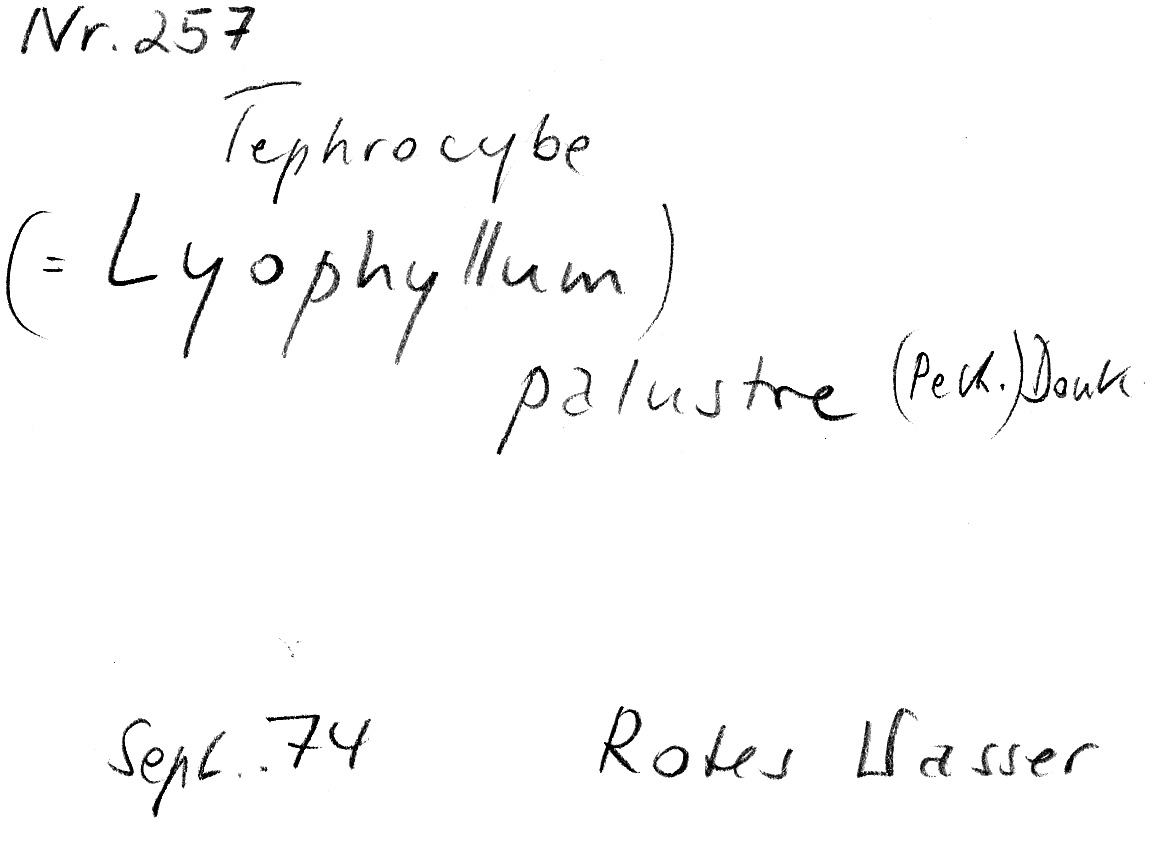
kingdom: Fungi
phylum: Basidiomycota
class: Agaricomycetes
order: Agaricales
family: Lyophyllaceae
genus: Sphagnurus
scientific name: Sphagnurus paluster
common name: Sphagnum greyling
